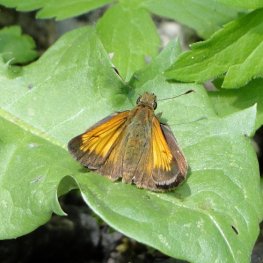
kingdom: Animalia
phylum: Arthropoda
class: Insecta
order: Lepidoptera
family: Hesperiidae
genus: Lon
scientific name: Lon hobomok
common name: Hobomok Skipper
